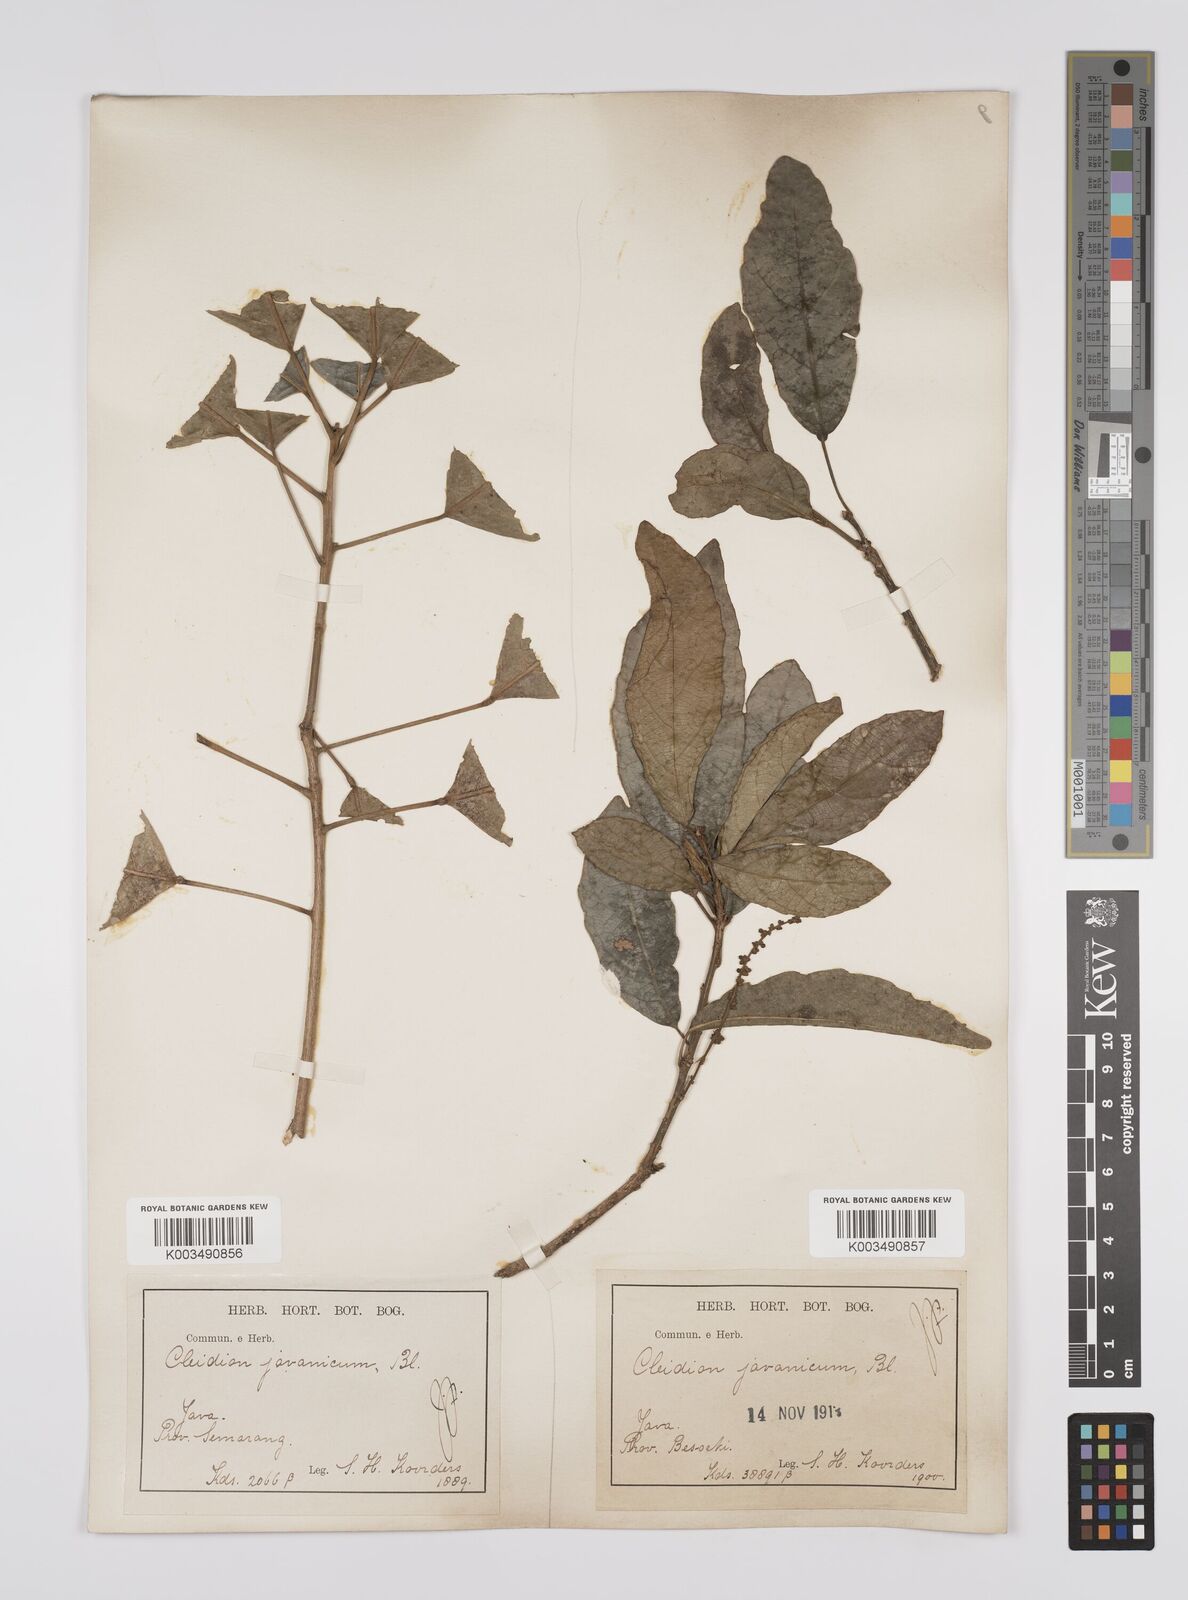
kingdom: Plantae
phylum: Tracheophyta
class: Magnoliopsida
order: Malpighiales
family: Euphorbiaceae
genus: Acalypha
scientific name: Acalypha spiciflora
